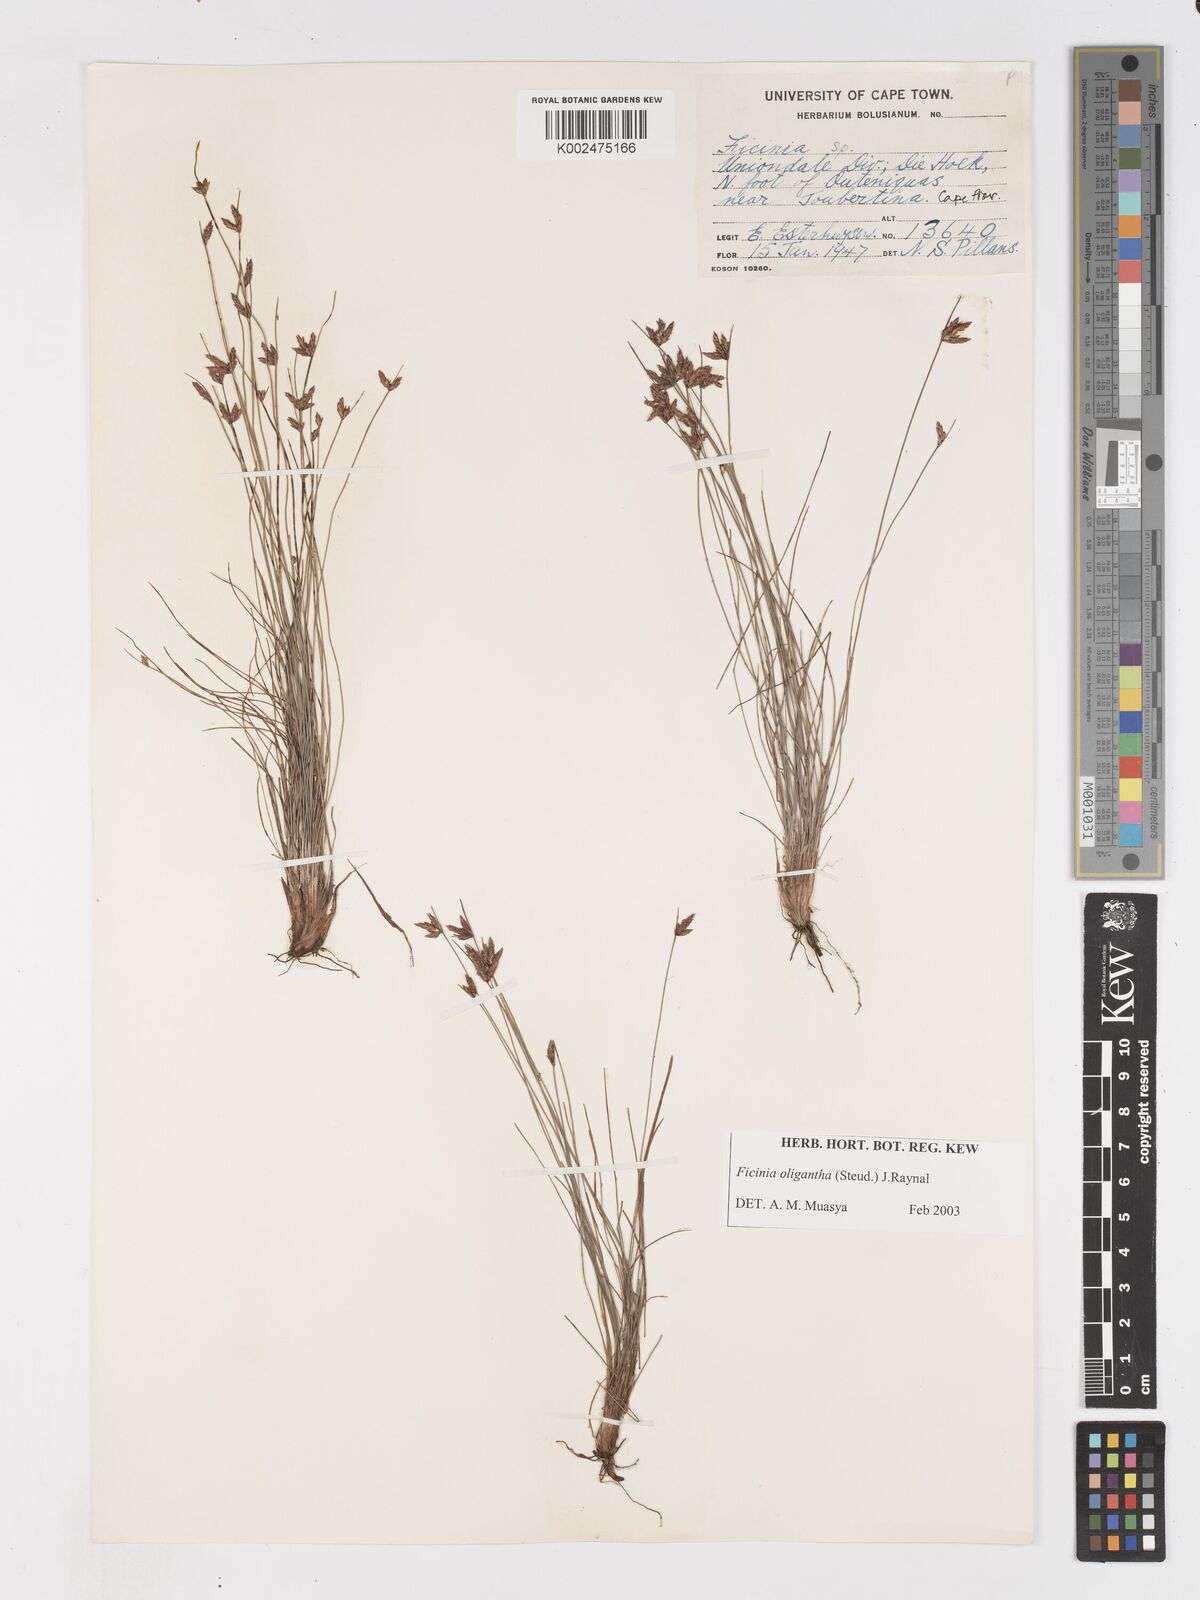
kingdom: Plantae
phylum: Tracheophyta
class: Liliopsida
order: Poales
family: Cyperaceae
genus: Ficinia
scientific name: Ficinia stolonifera
